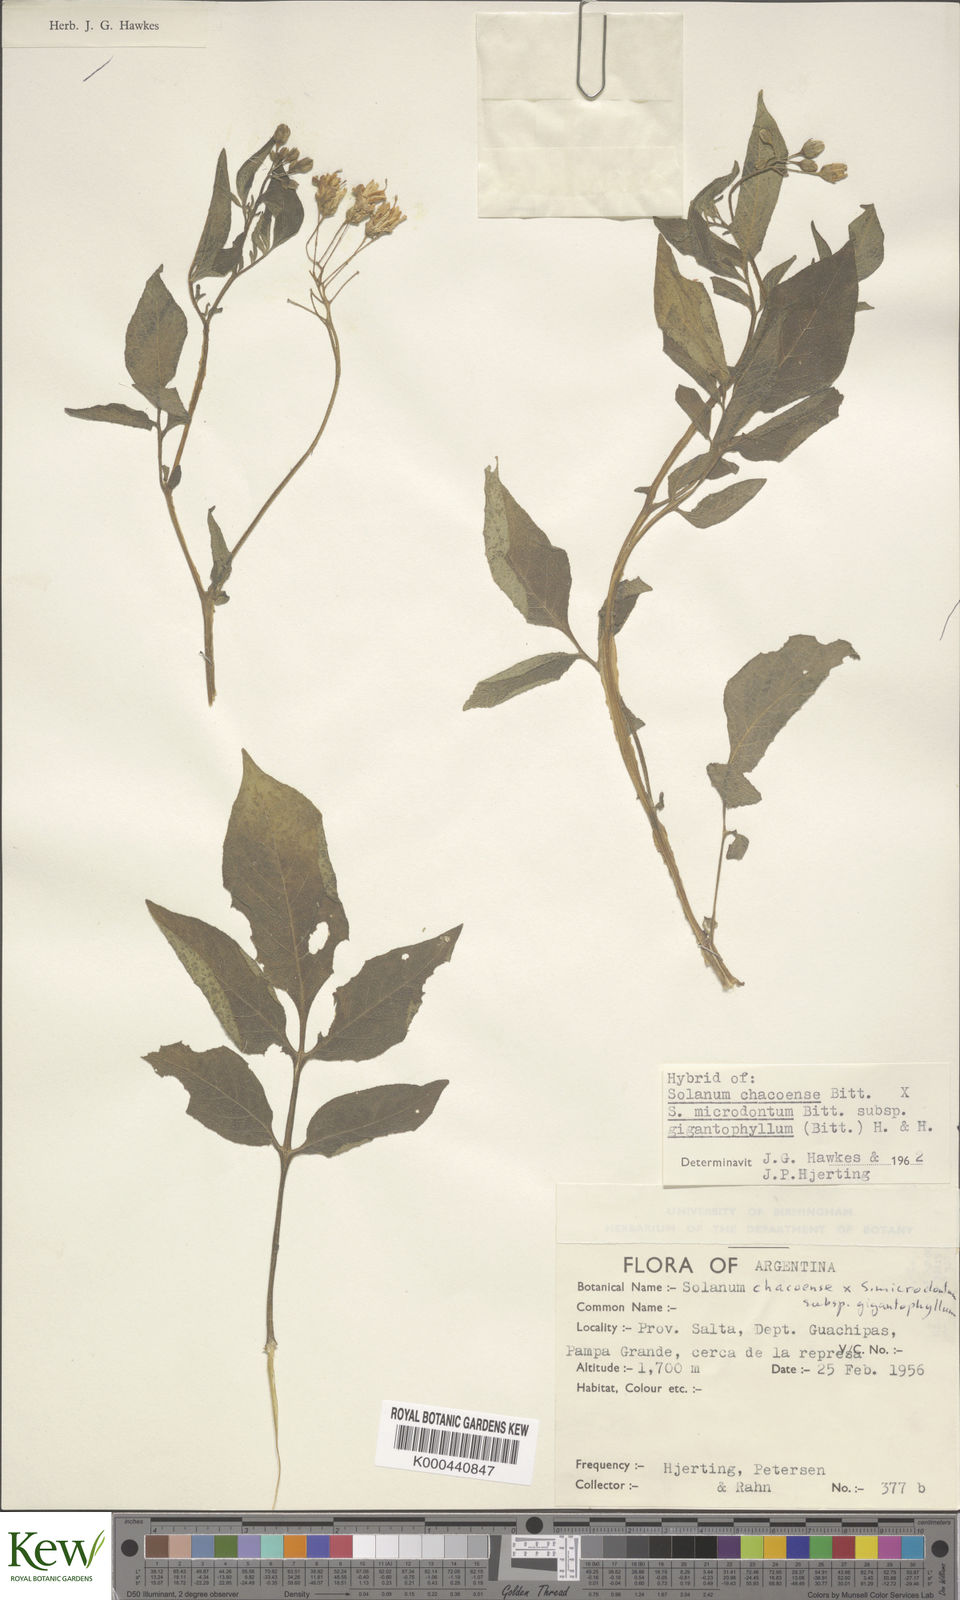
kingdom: Plantae
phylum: Tracheophyta
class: Magnoliopsida
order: Solanales
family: Solanaceae
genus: Solanum
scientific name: Solanum microdontum
